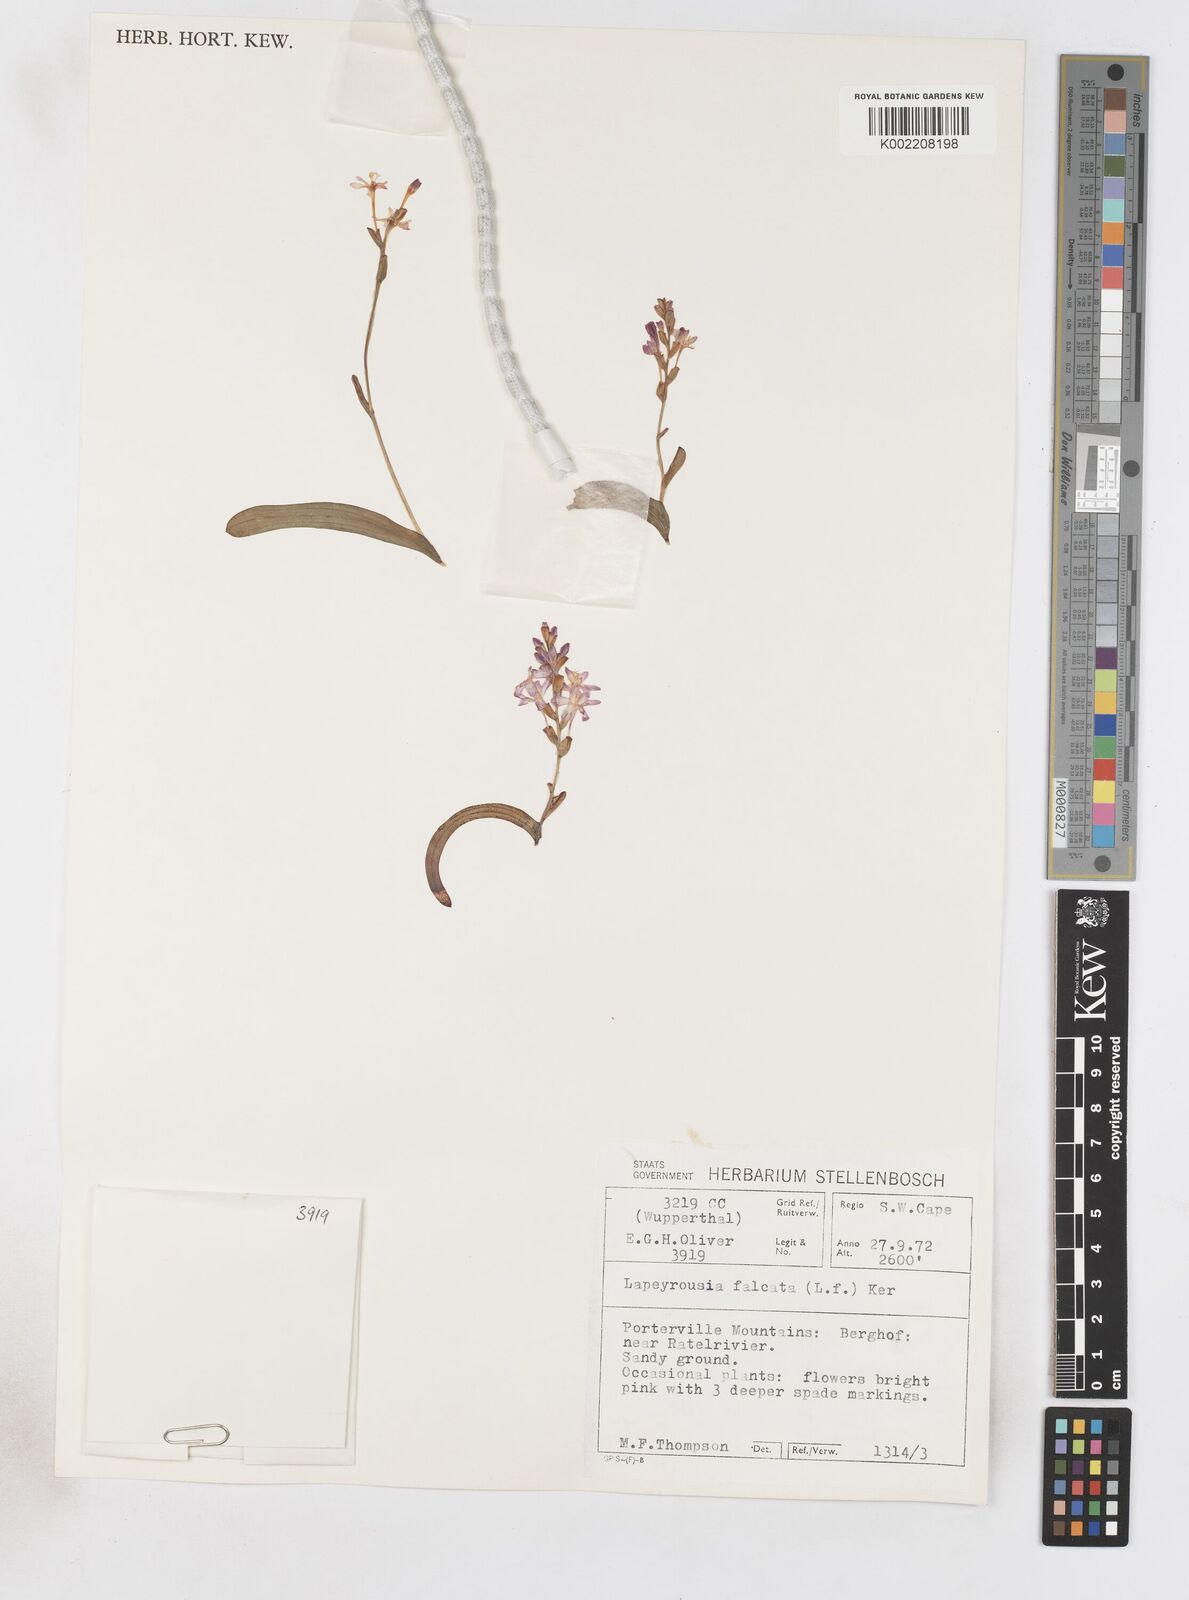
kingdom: Plantae
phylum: Tracheophyta
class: Liliopsida
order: Asparagales
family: Iridaceae
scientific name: Iridaceae
